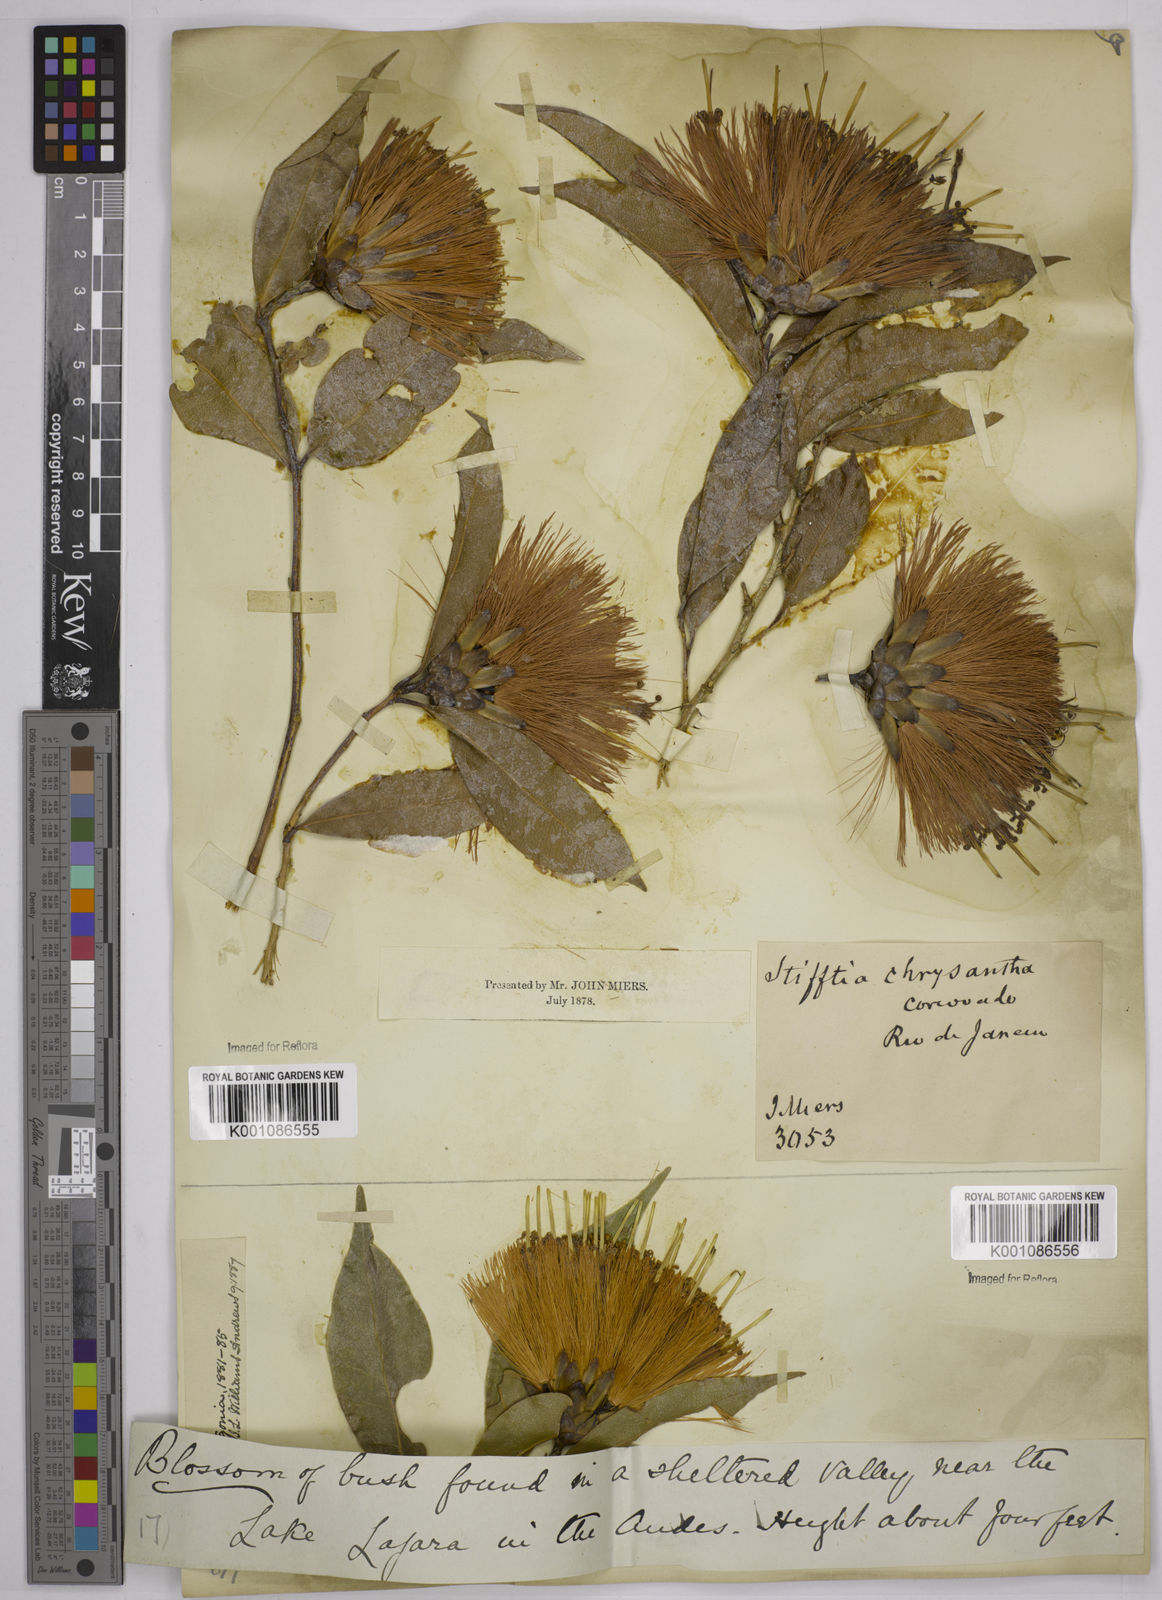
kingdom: Plantae
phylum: Tracheophyta
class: Magnoliopsida
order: Asterales
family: Asteraceae
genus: Stifftia
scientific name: Stifftia chrysantha
